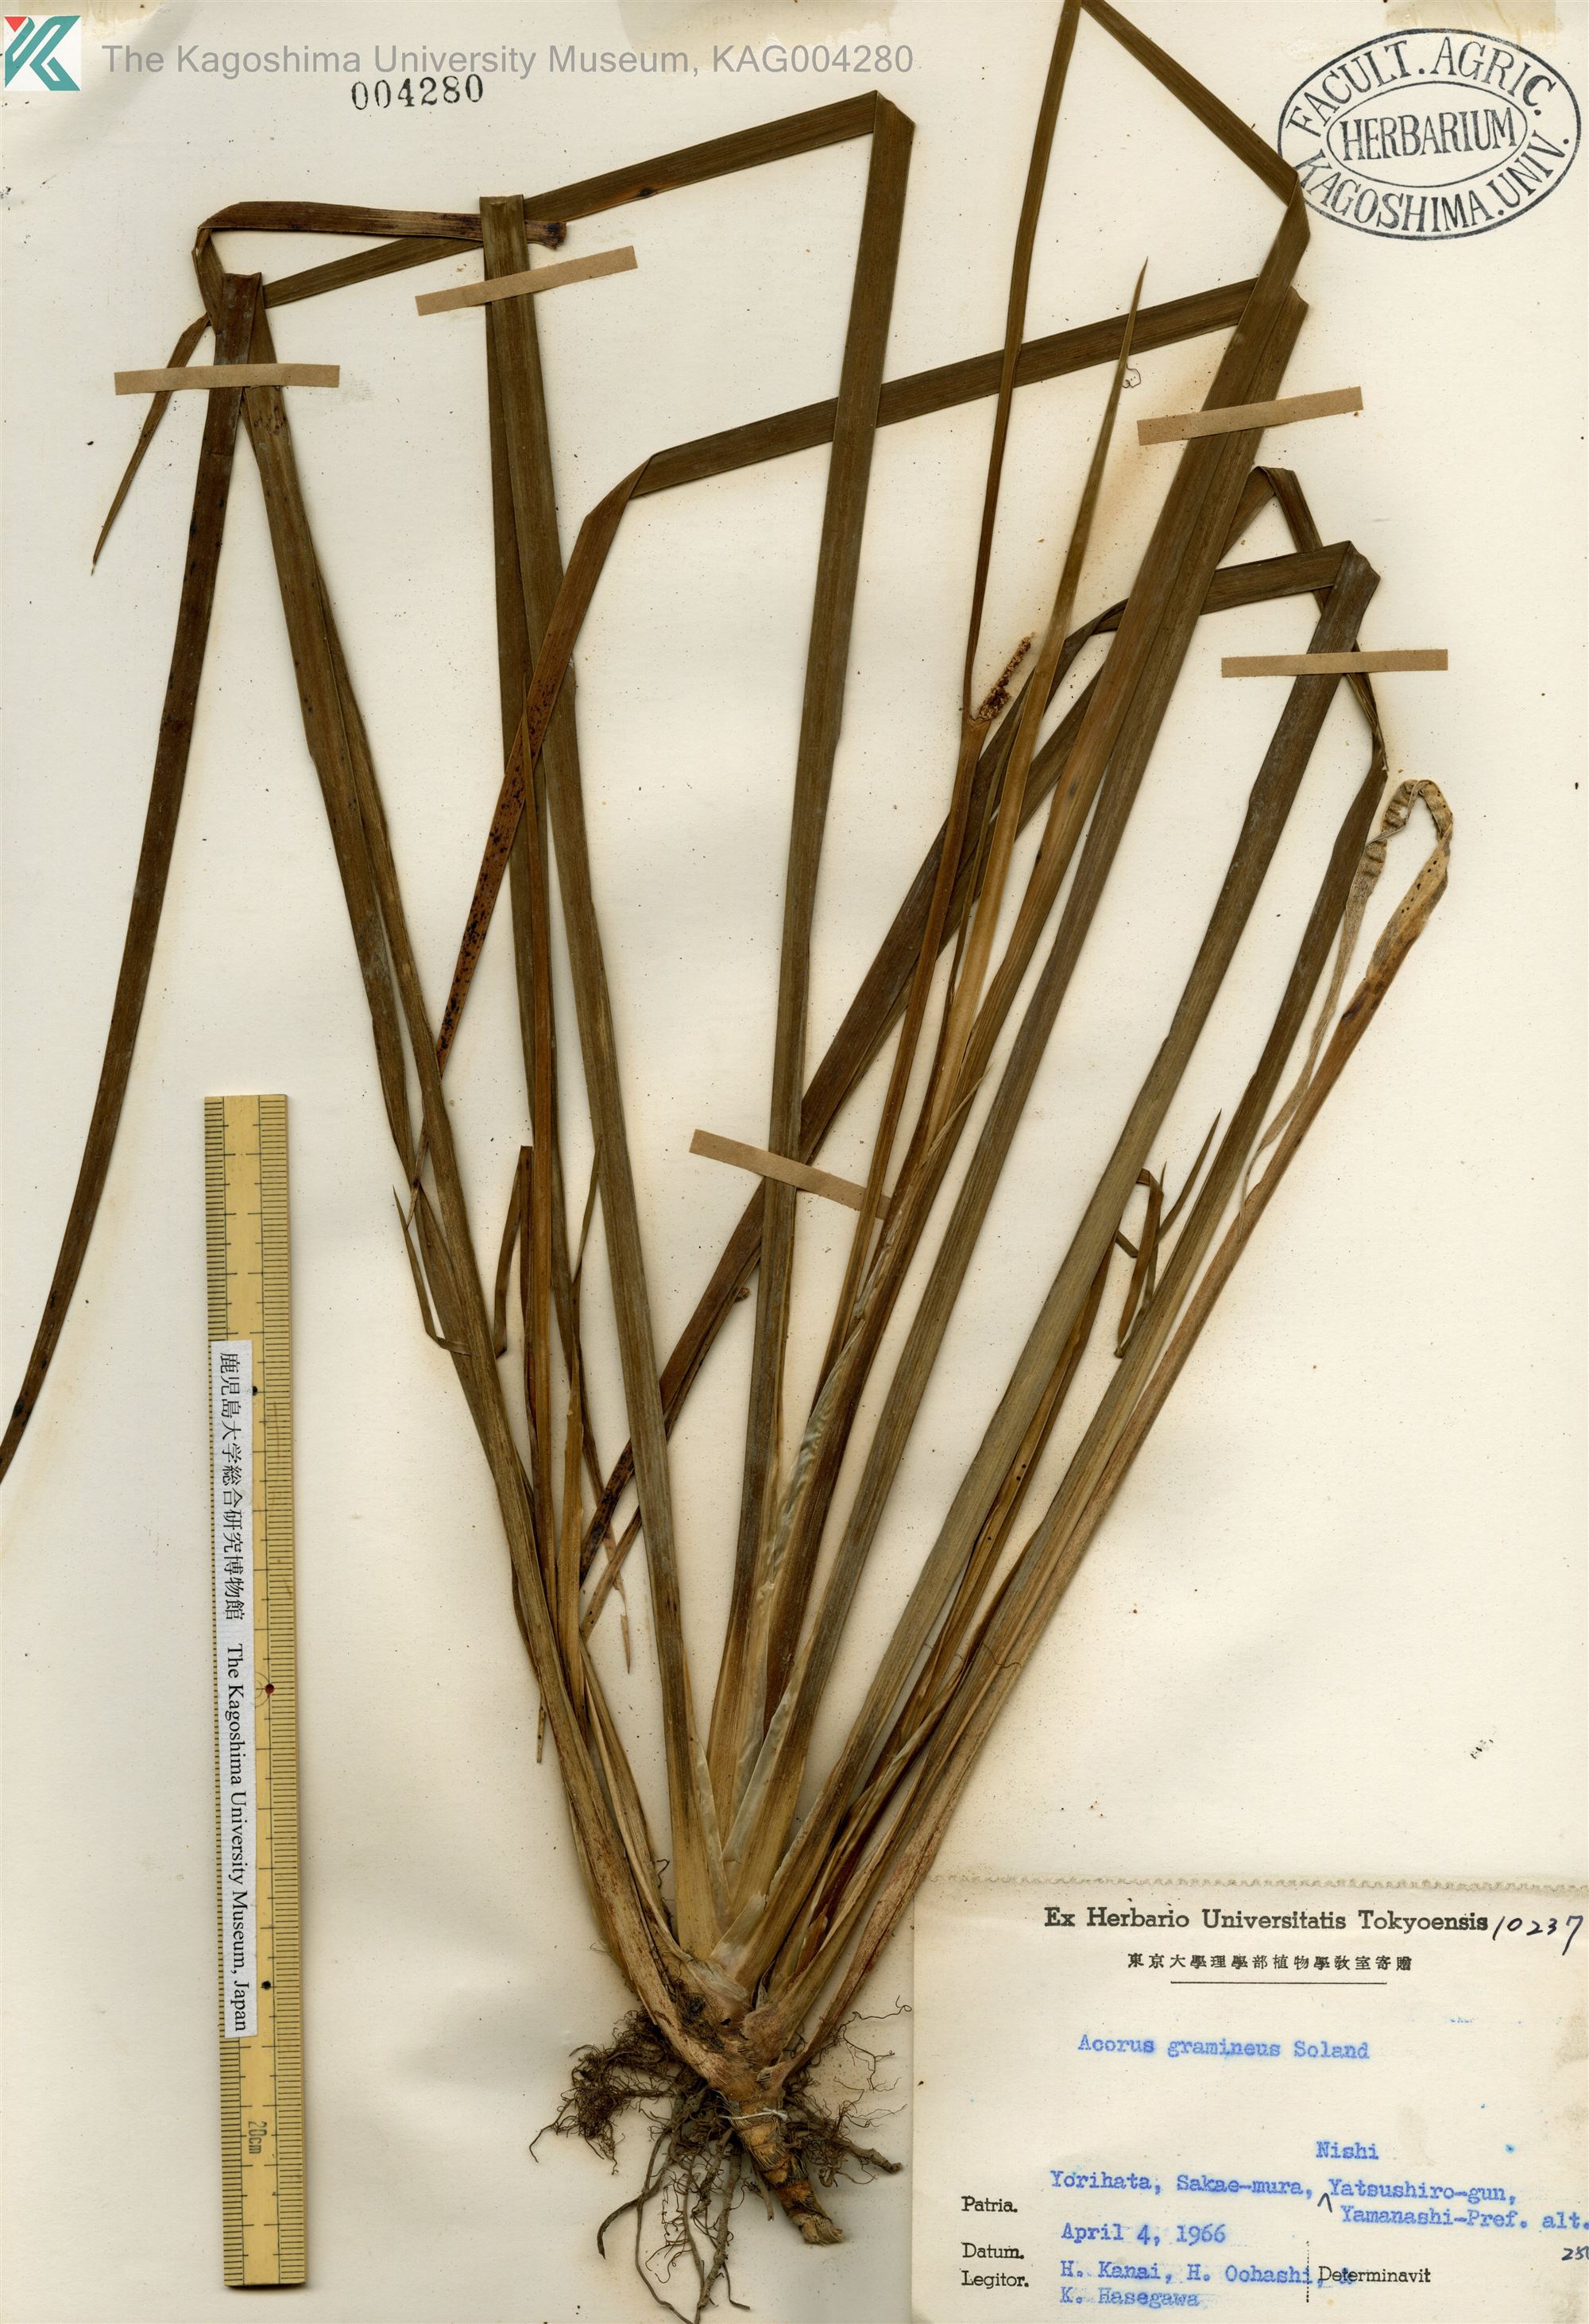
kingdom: Plantae
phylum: Tracheophyta
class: Liliopsida
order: Acorales
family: Acoraceae
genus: Acorus
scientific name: Acorus gramineus
